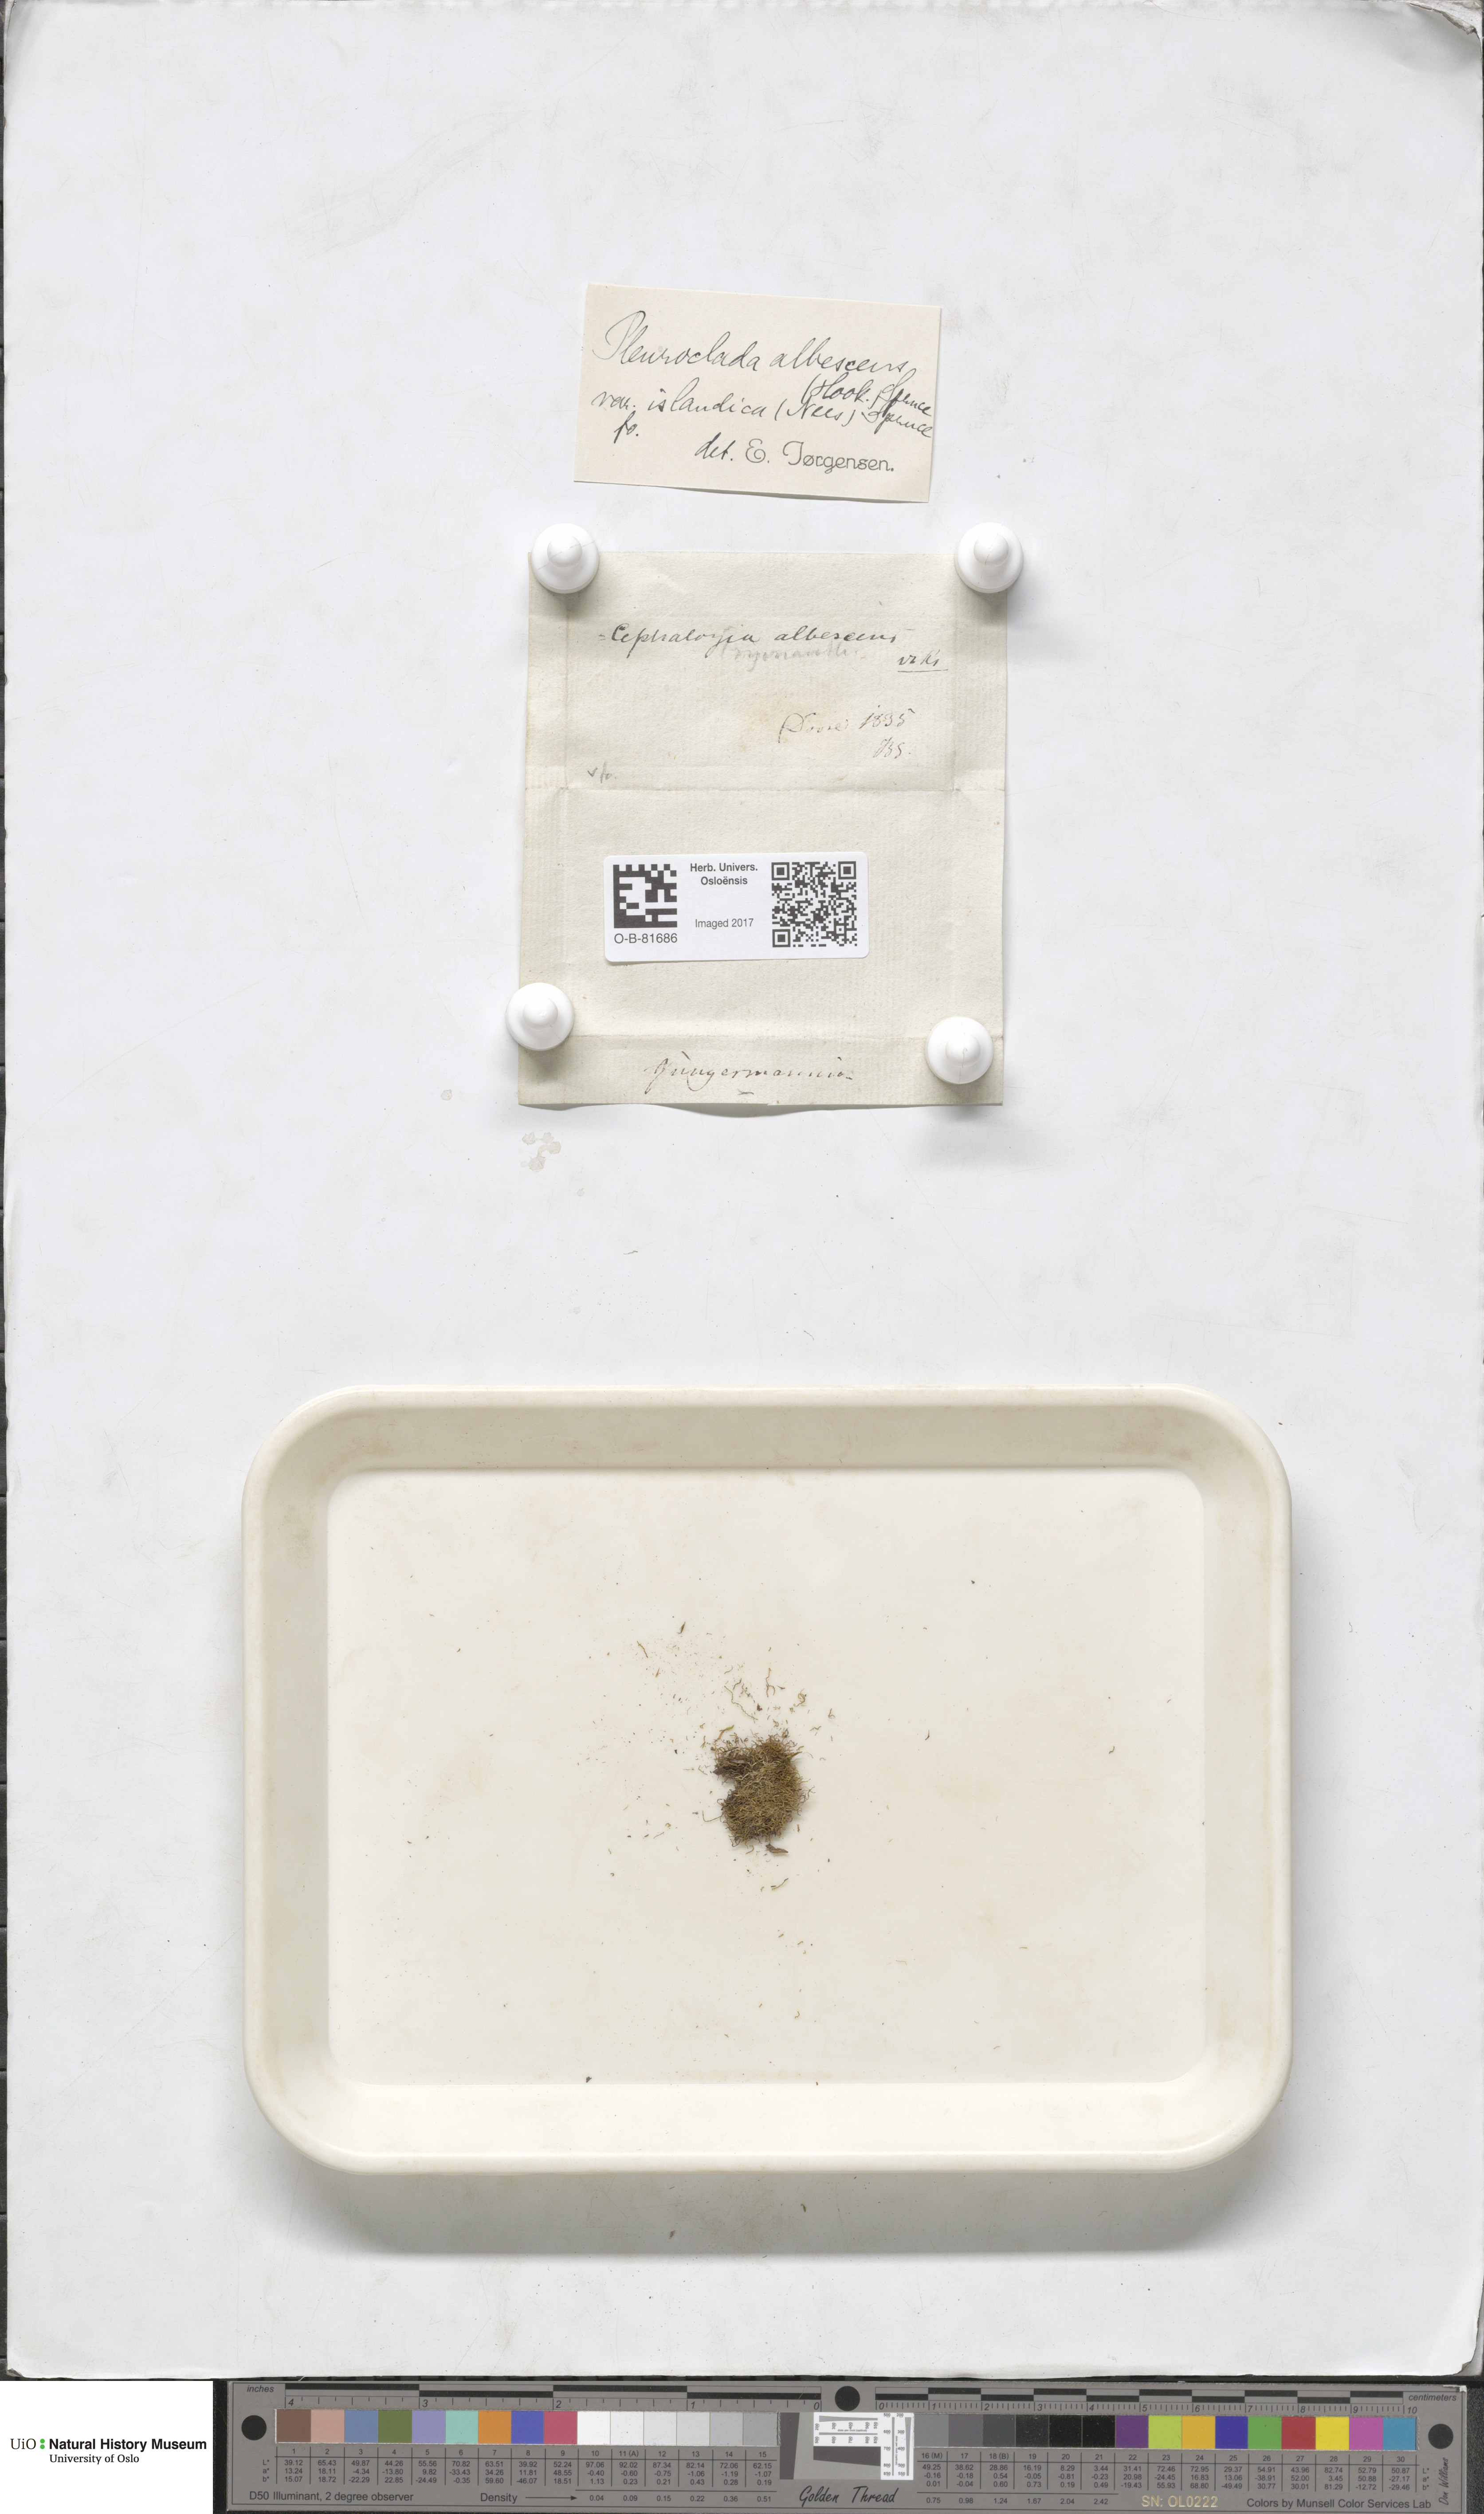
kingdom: Plantae
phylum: Marchantiophyta
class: Jungermanniopsida
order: Jungermanniales
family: Cephaloziaceae
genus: Fuscocephaloziopsis
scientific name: Fuscocephaloziopsis albescens
